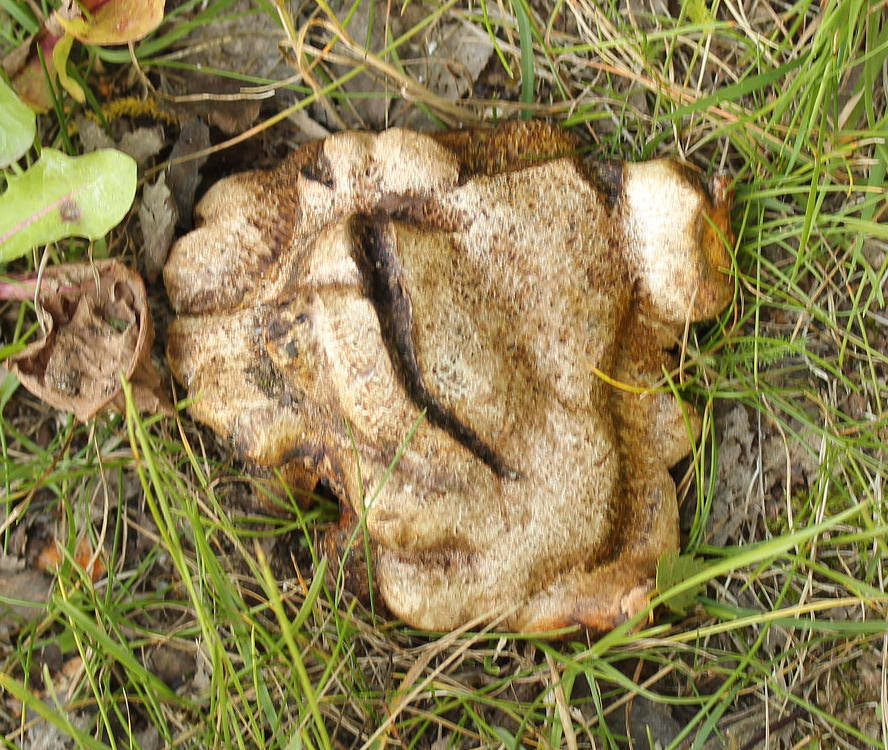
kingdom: Fungi
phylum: Basidiomycota
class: Agaricomycetes
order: Boletales
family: Sclerodermataceae
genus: Scleroderma
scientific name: Scleroderma bovista
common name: bovist-bruskbold
